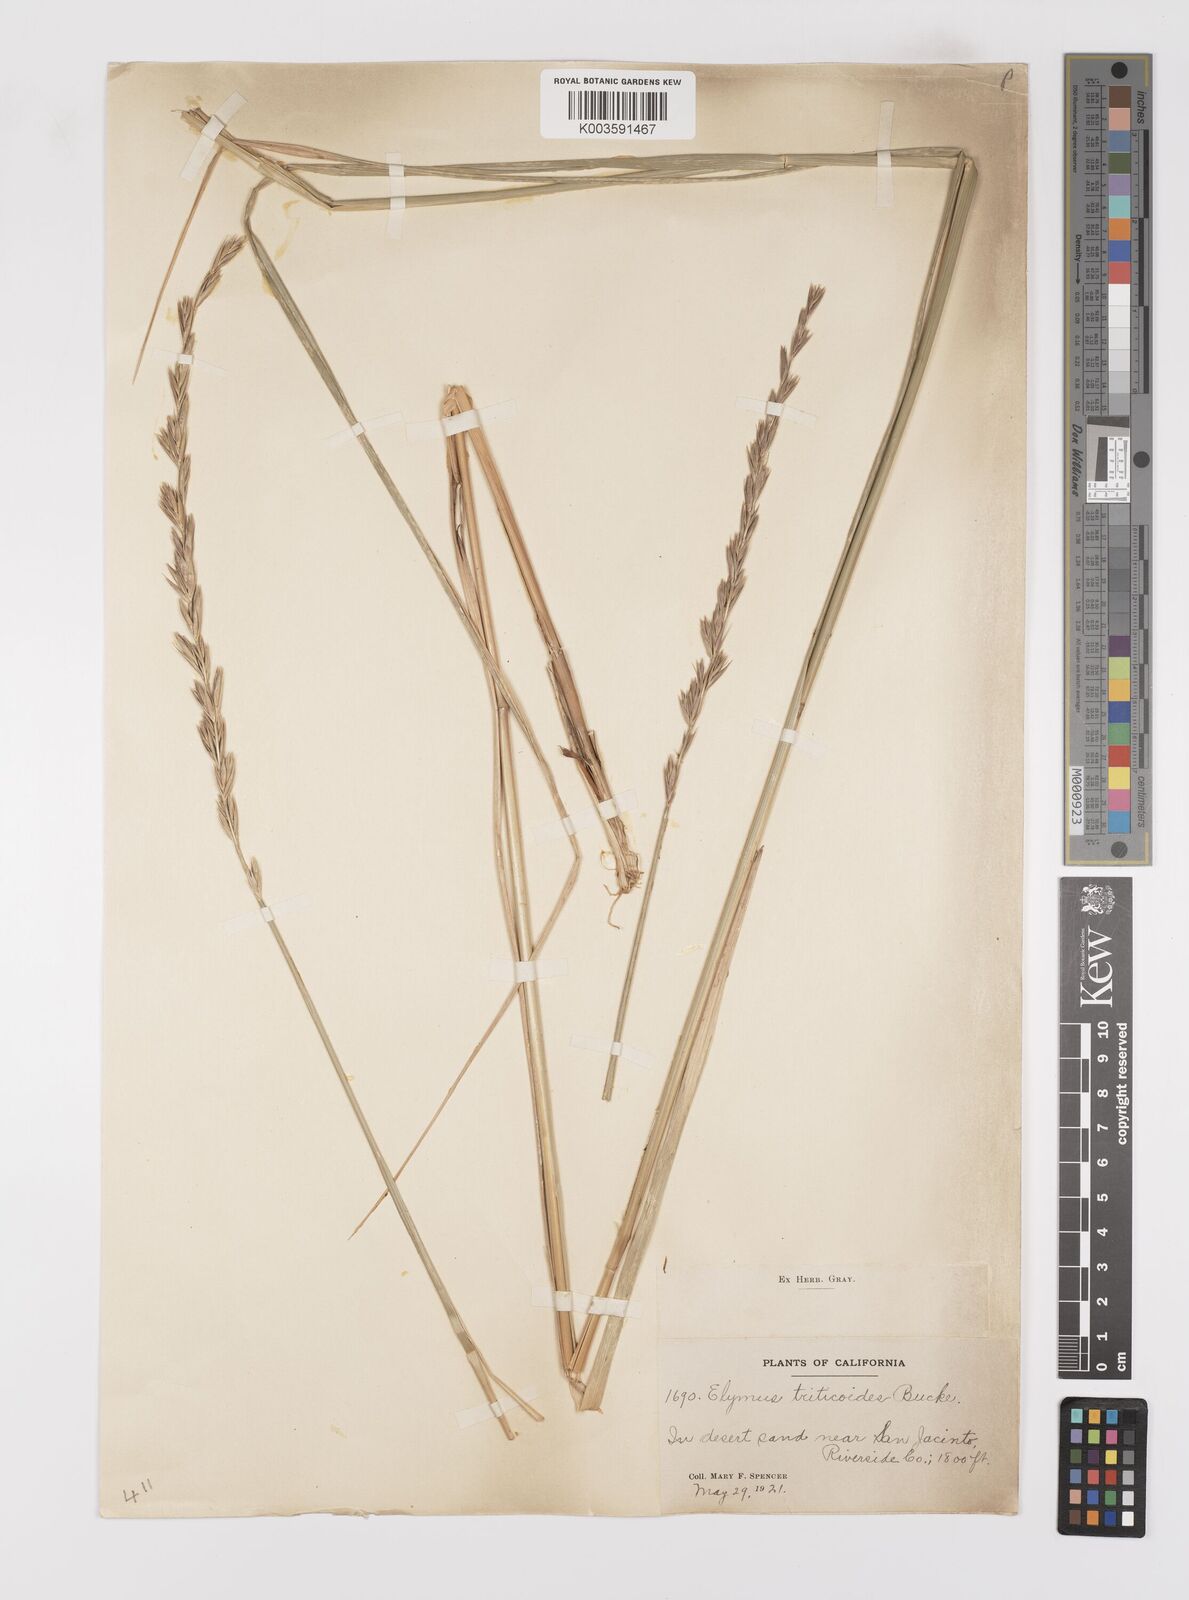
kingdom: Plantae
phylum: Tracheophyta
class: Liliopsida
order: Poales
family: Poaceae
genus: Leymus
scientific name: Leymus triticoides
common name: Beardless wild rye
